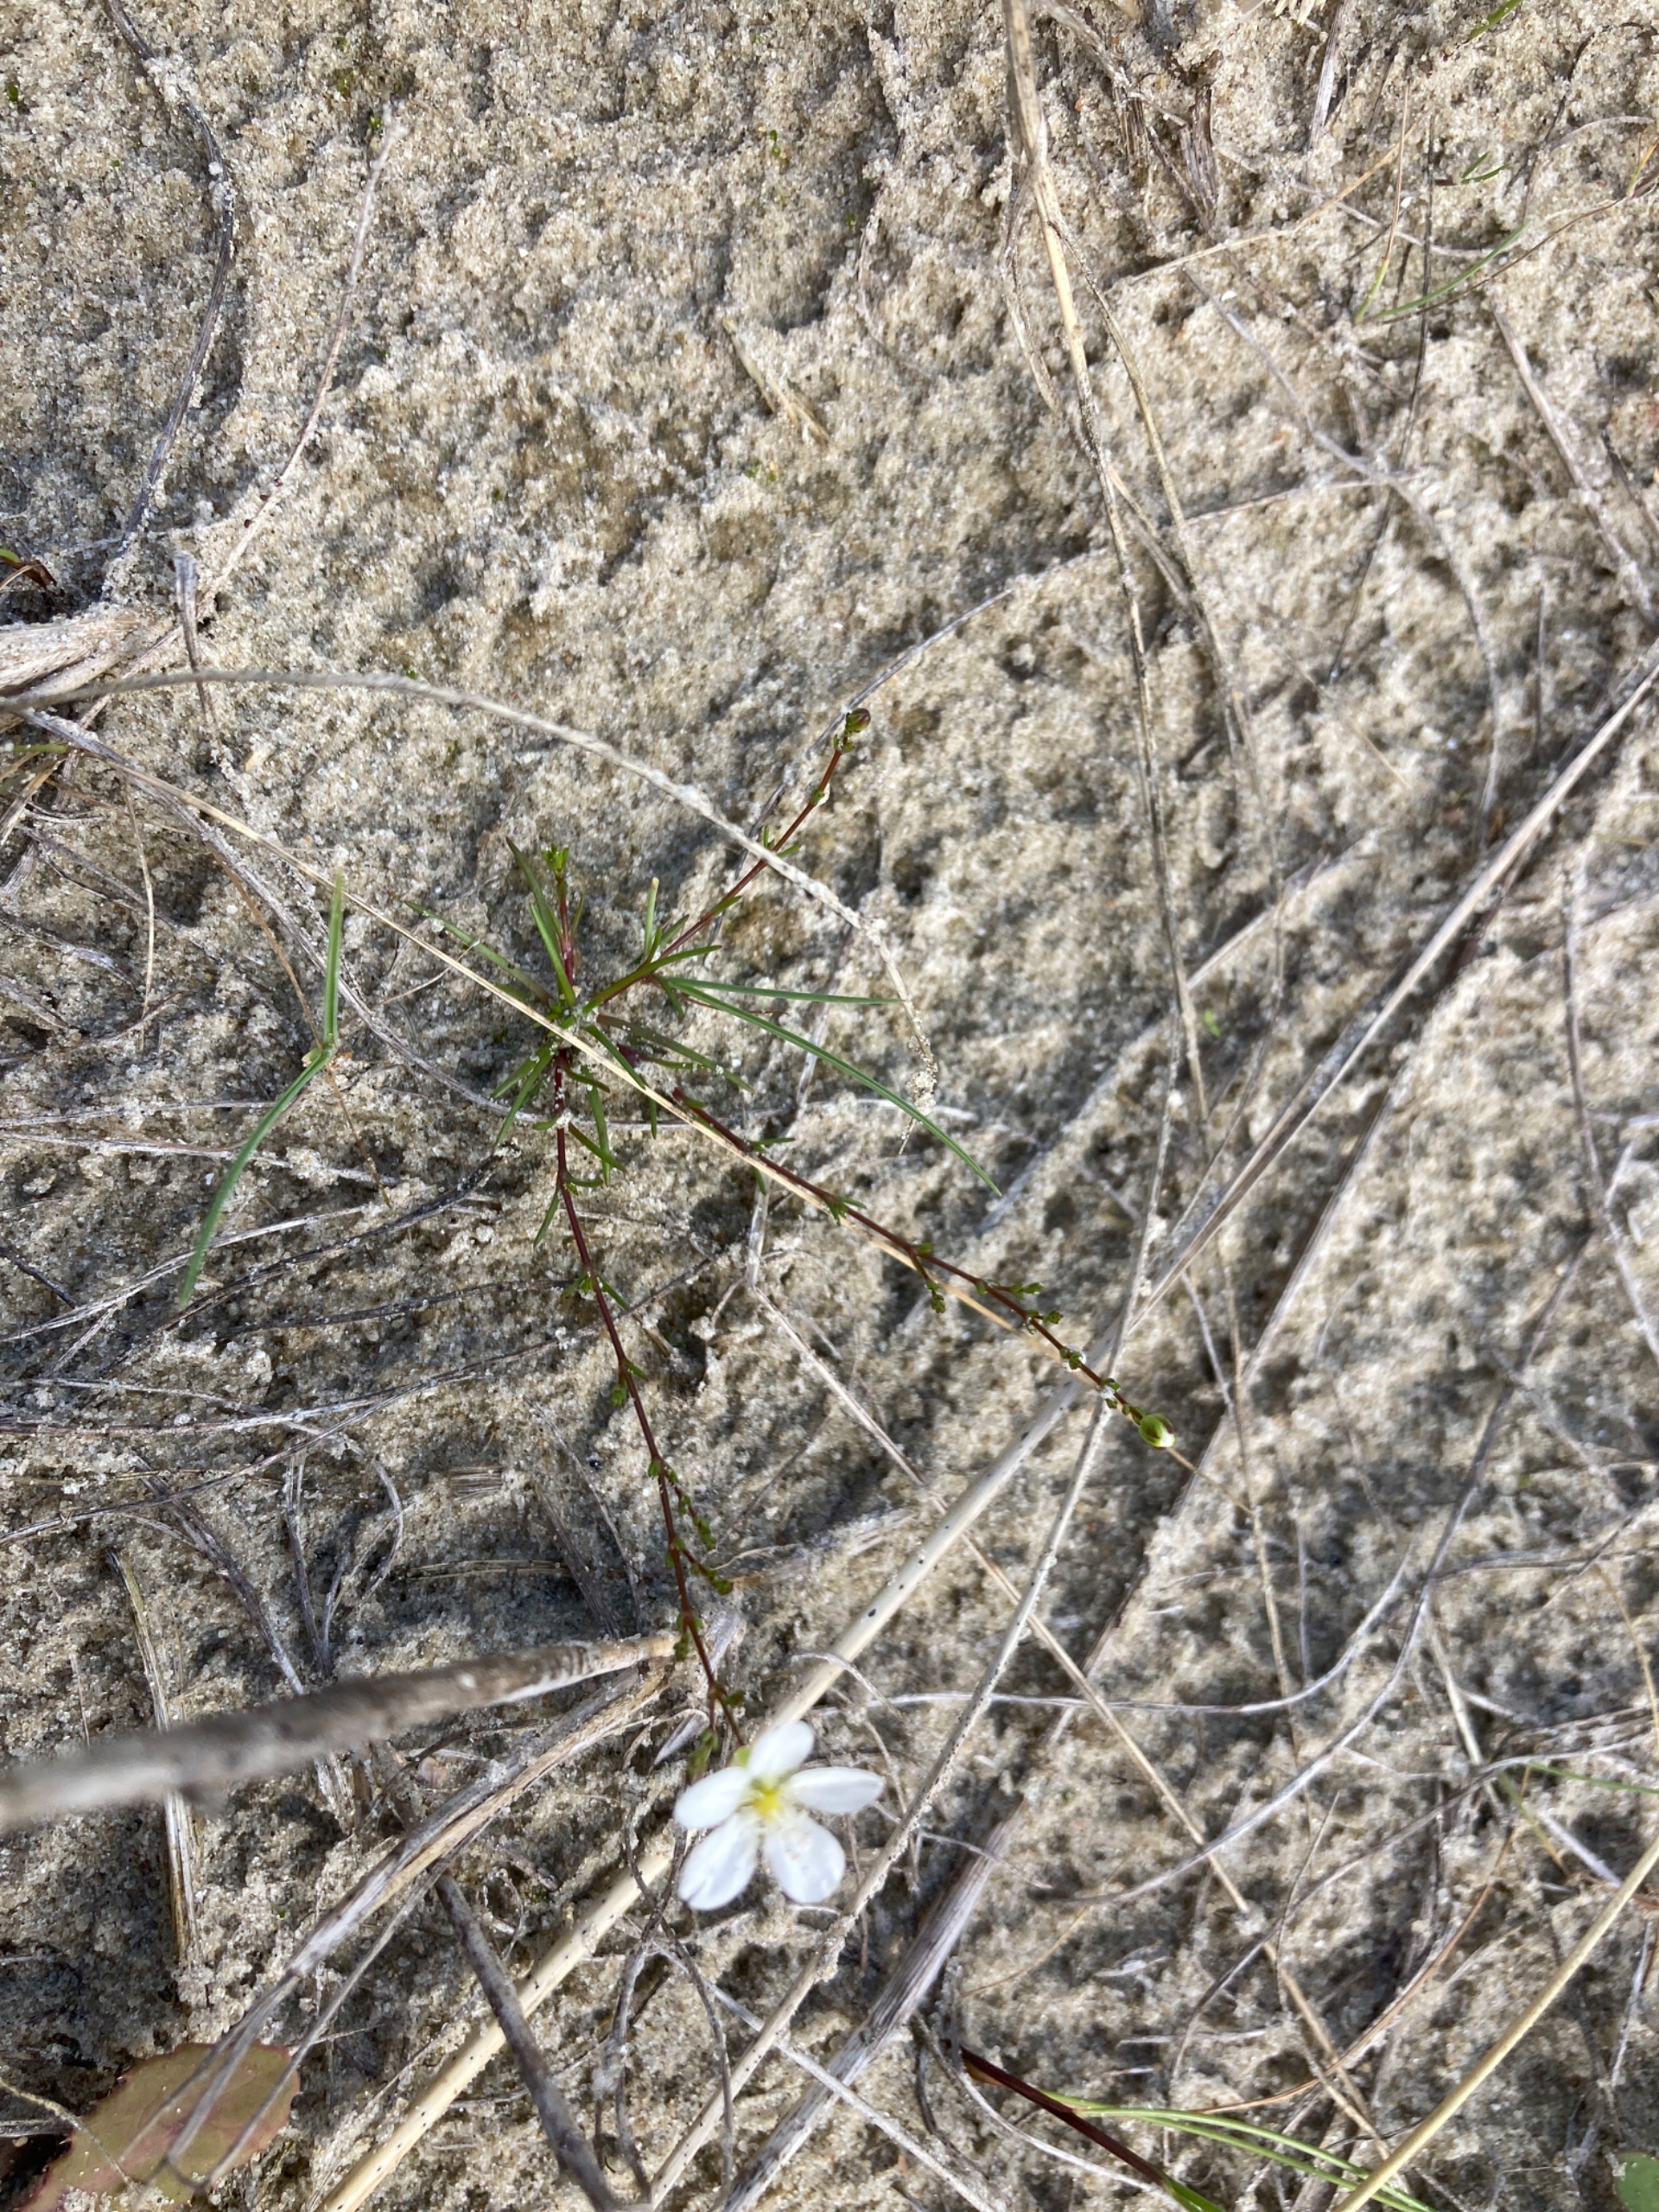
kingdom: Plantae
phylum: Tracheophyta
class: Magnoliopsida
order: Caryophyllales
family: Caryophyllaceae
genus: Sagina
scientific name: Sagina nodosa
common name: Knude-firling
